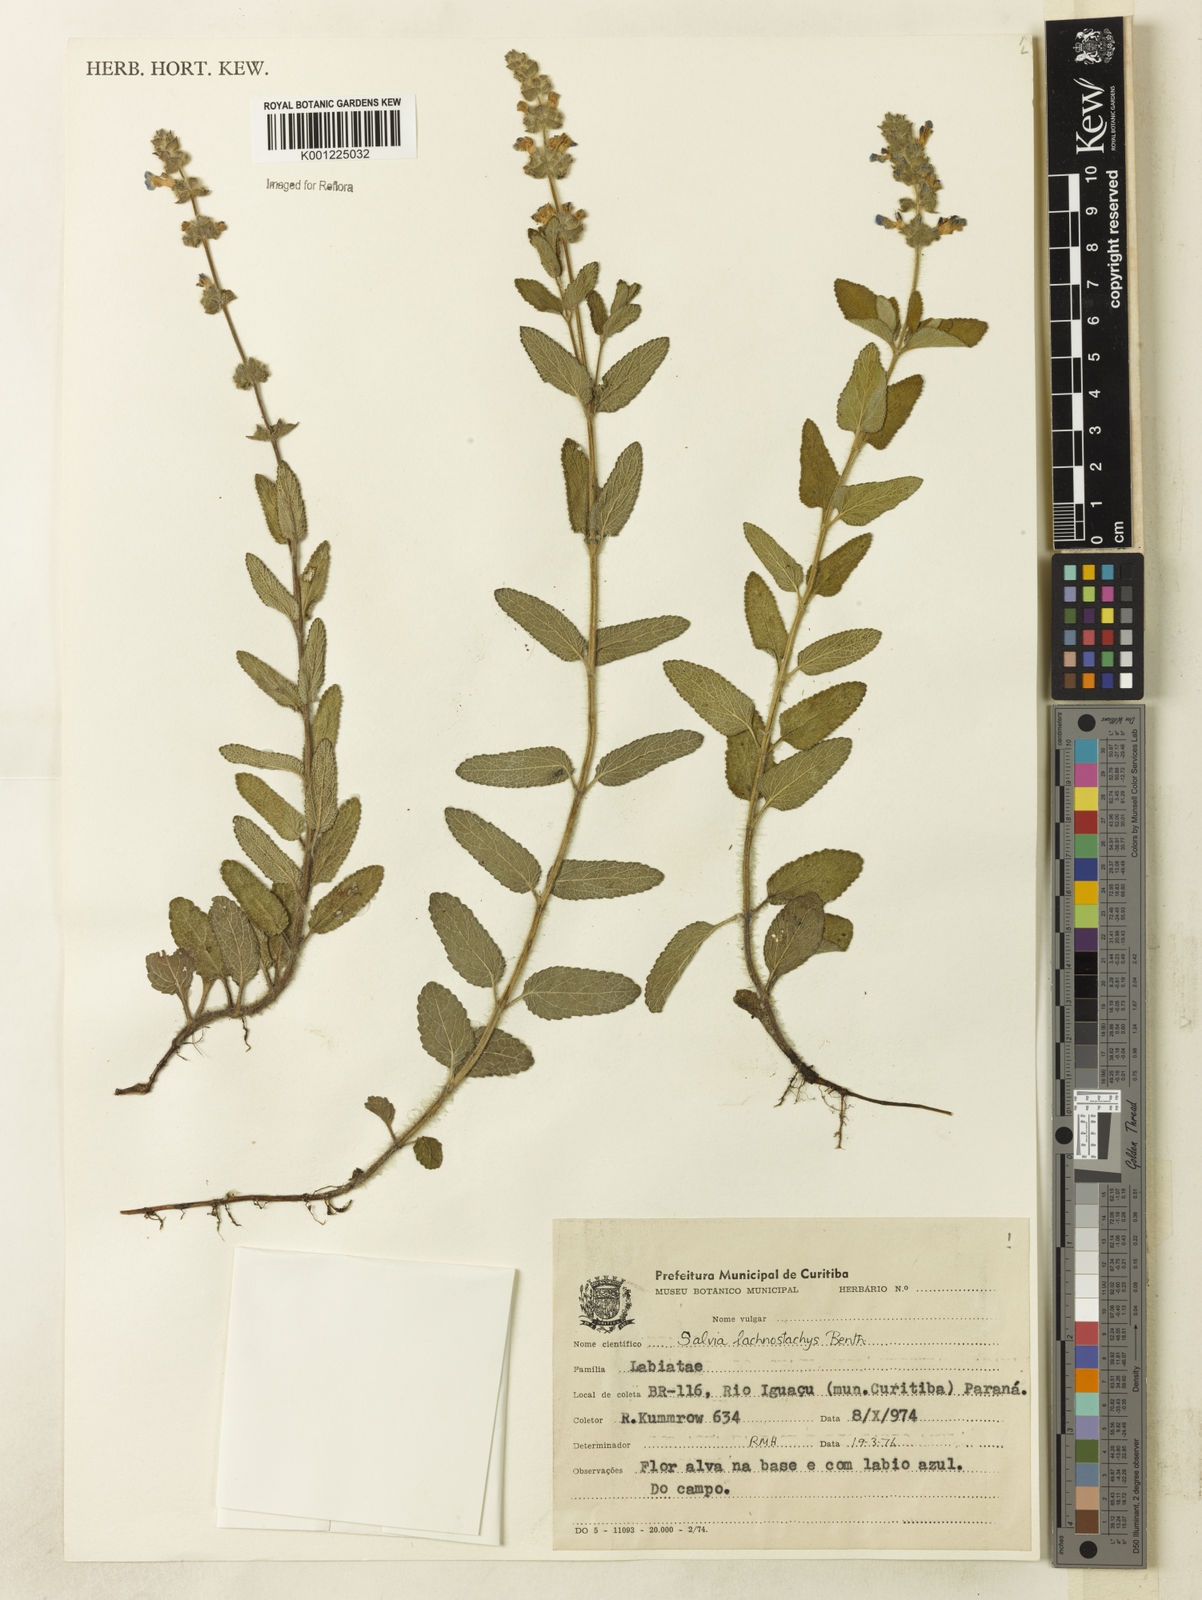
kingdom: Plantae
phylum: Tracheophyta
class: Magnoliopsida
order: Lamiales
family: Lamiaceae
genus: Salvia
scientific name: Salvia lachnostachys
